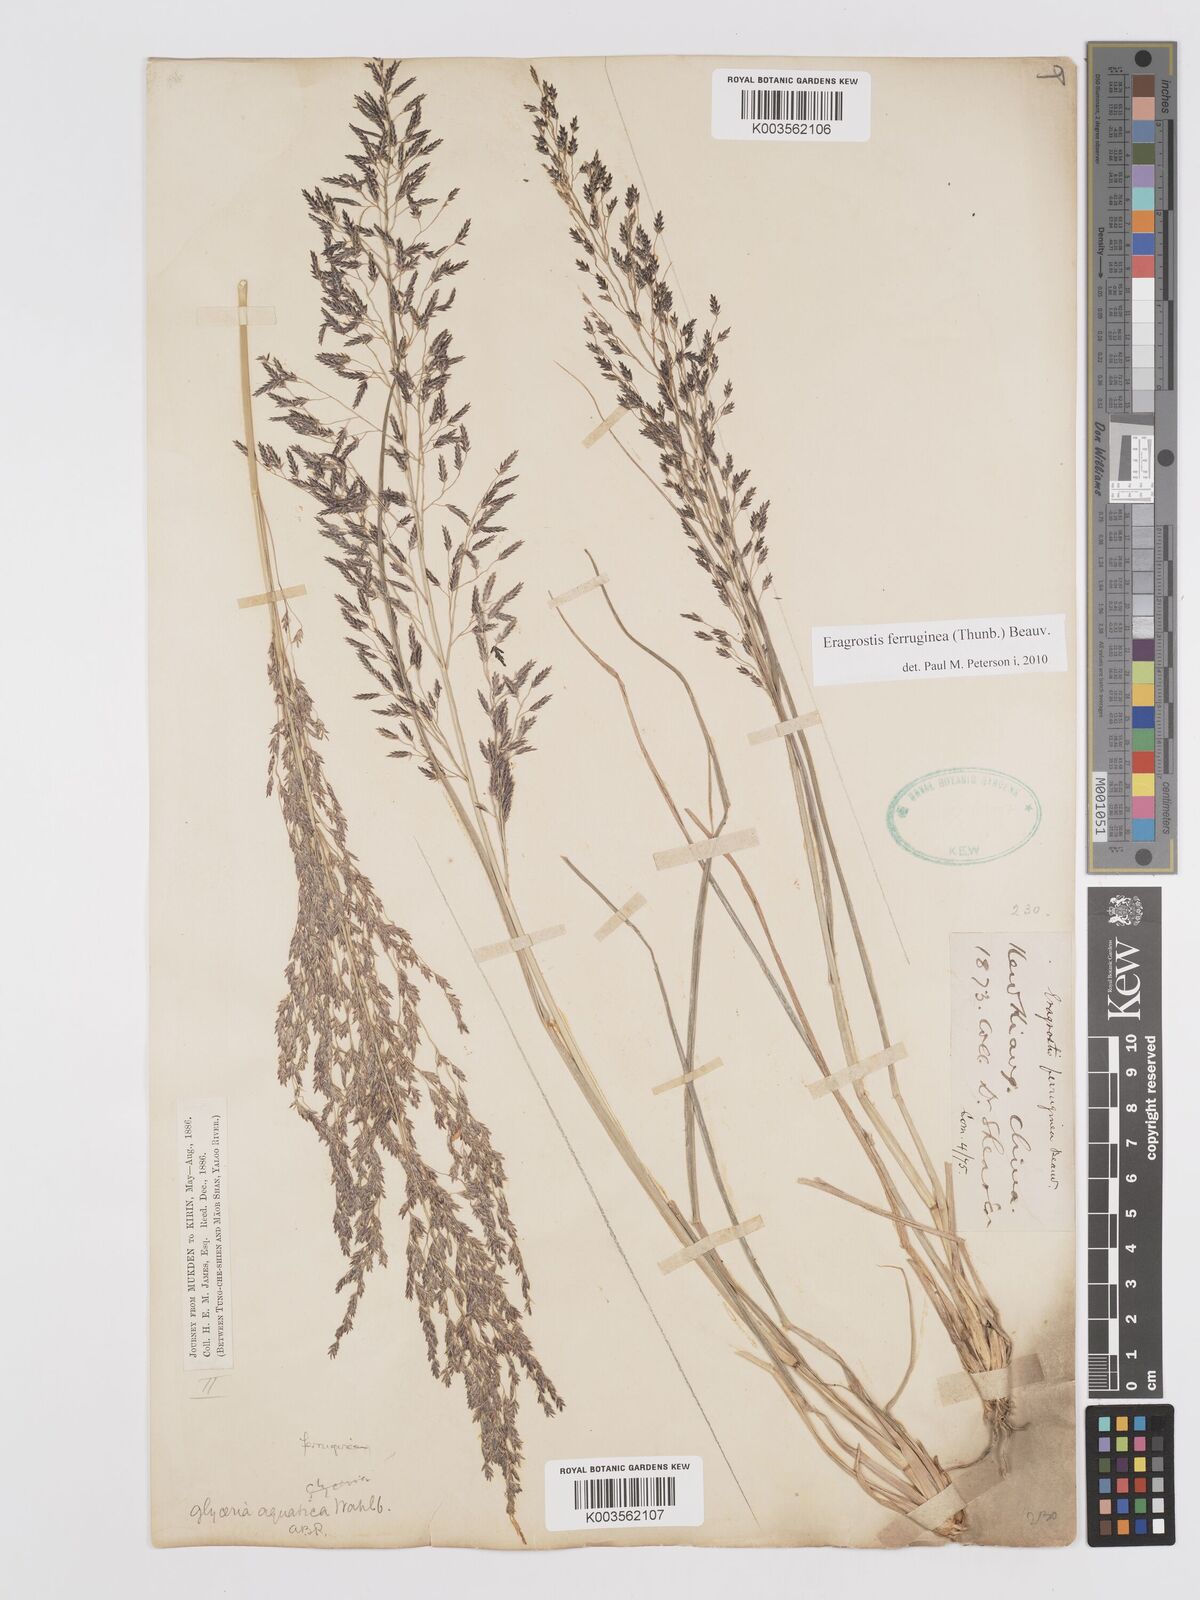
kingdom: Plantae
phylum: Tracheophyta
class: Liliopsida
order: Poales
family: Poaceae
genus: Eragrostis
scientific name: Eragrostis ferruginea
